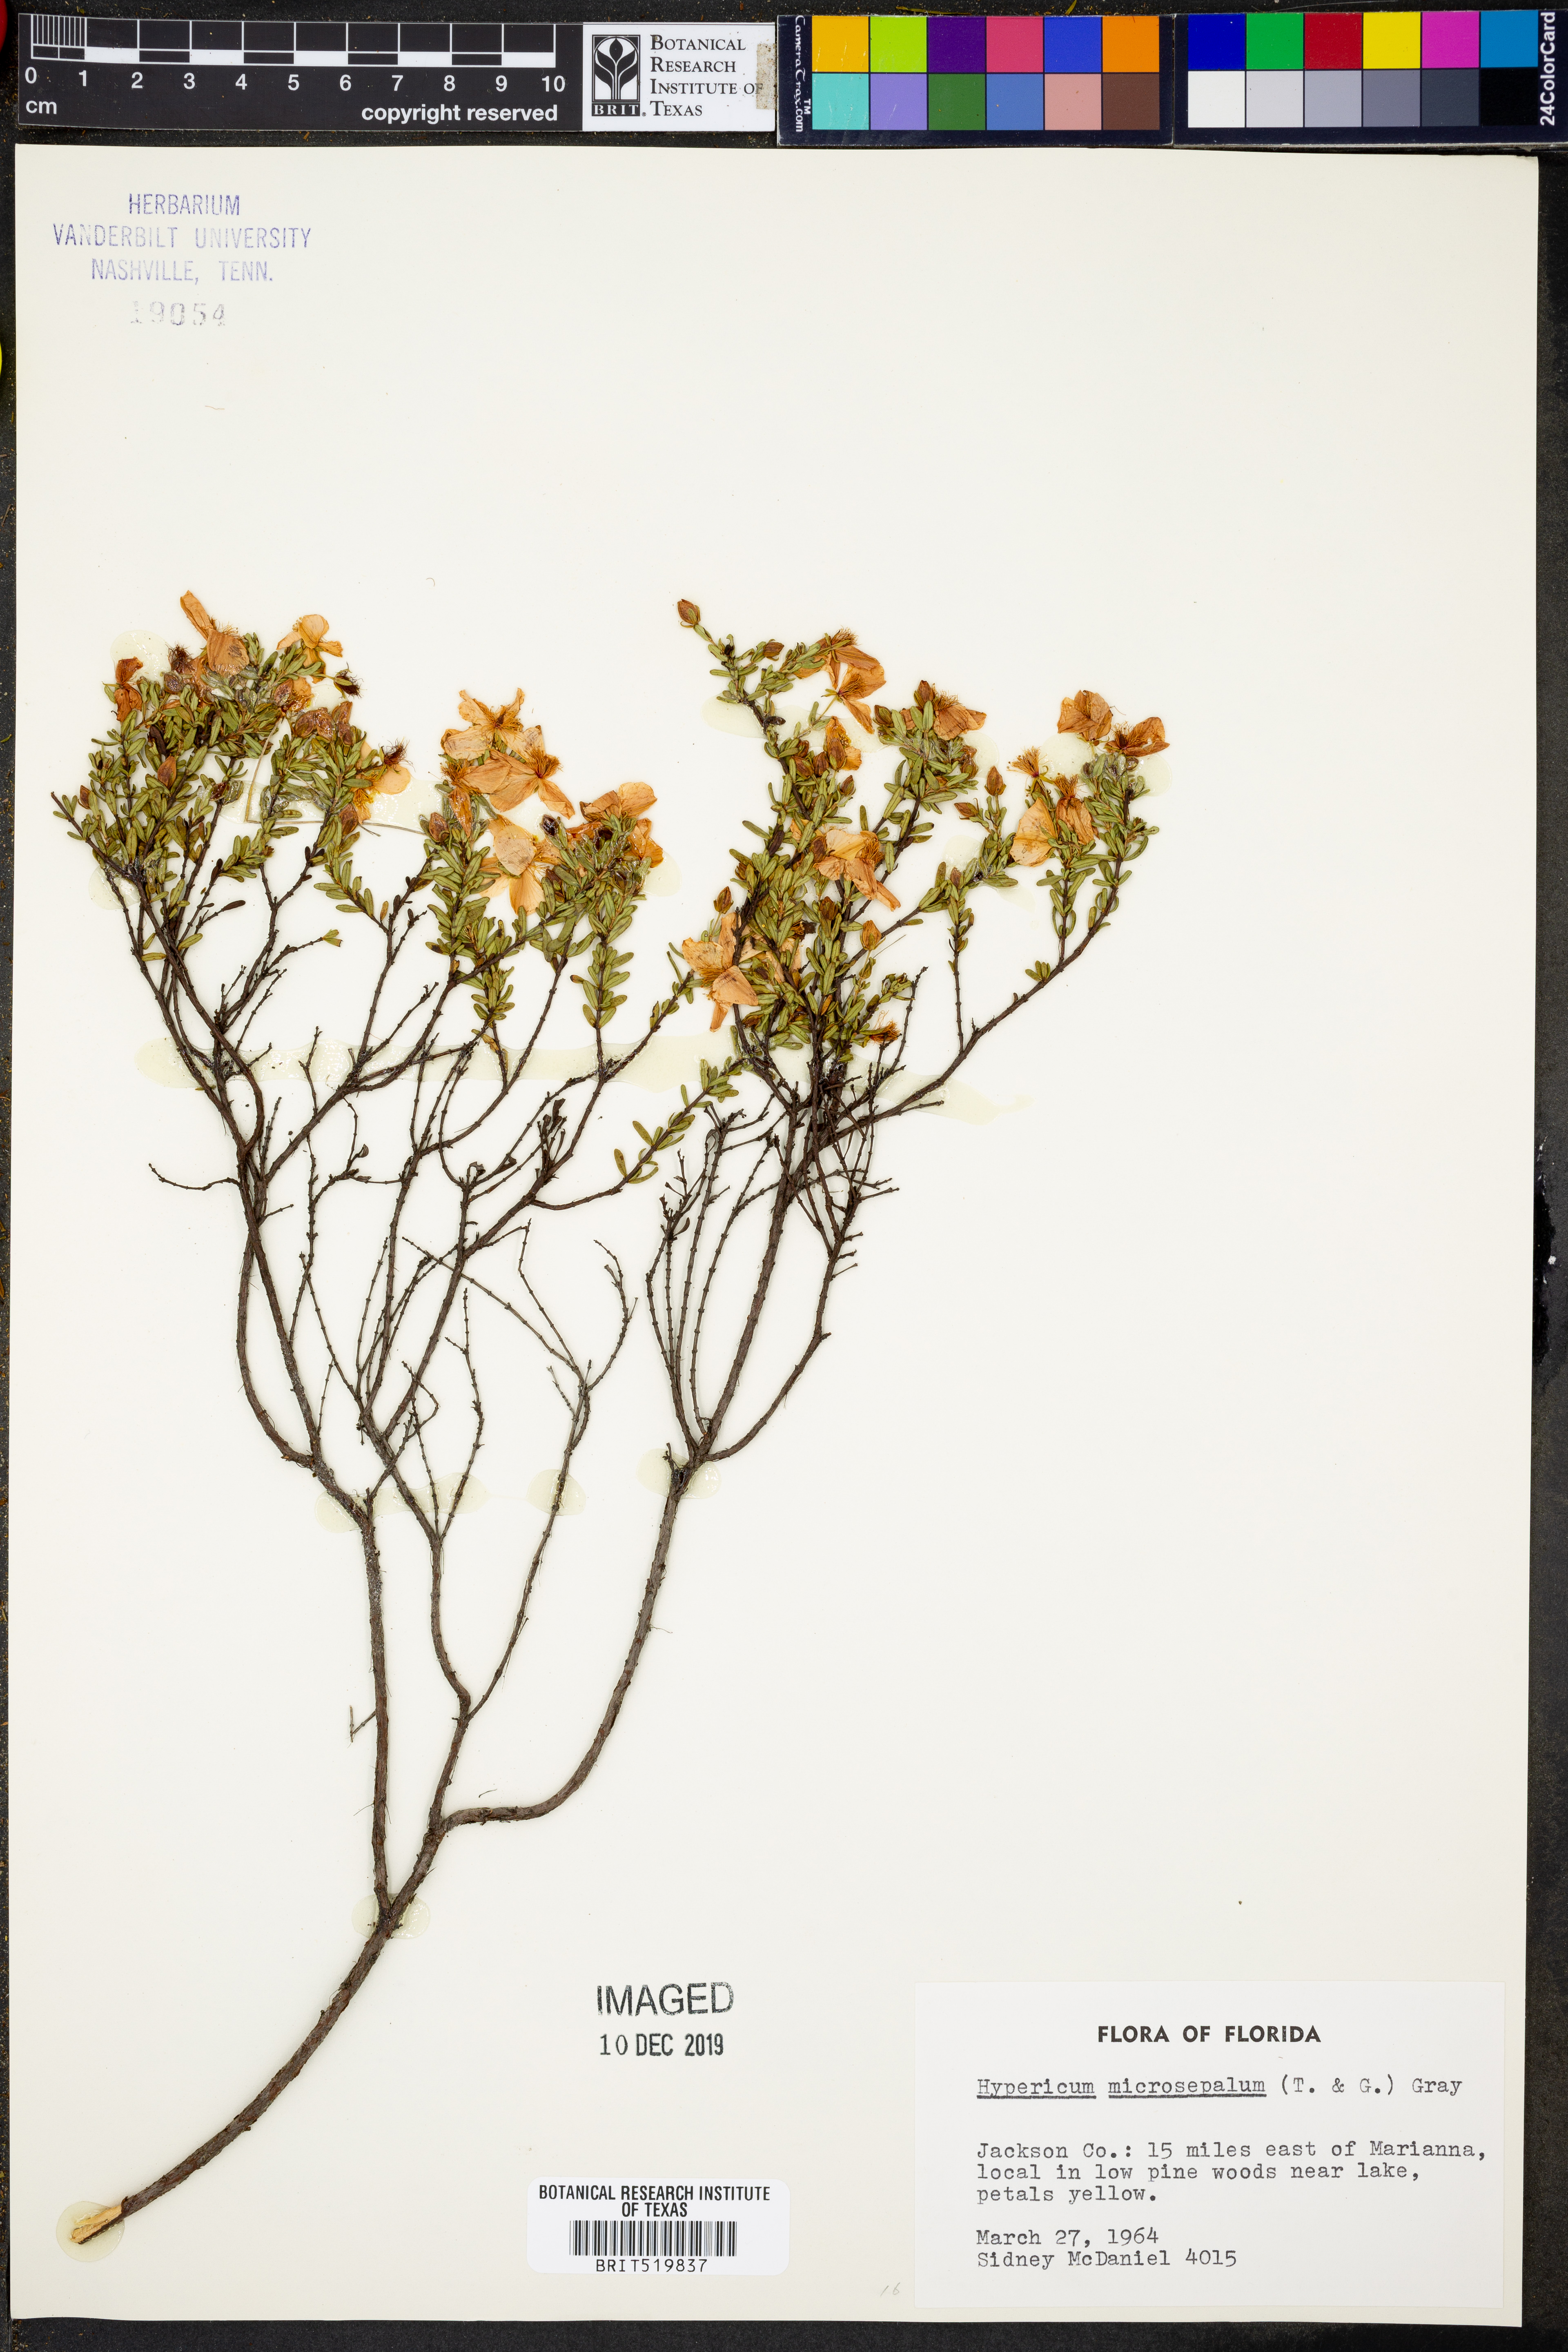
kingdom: Plantae
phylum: Tracheophyta
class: Magnoliopsida
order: Malpighiales
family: Hypericaceae
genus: Hypericum
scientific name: Hypericum microsepalum
